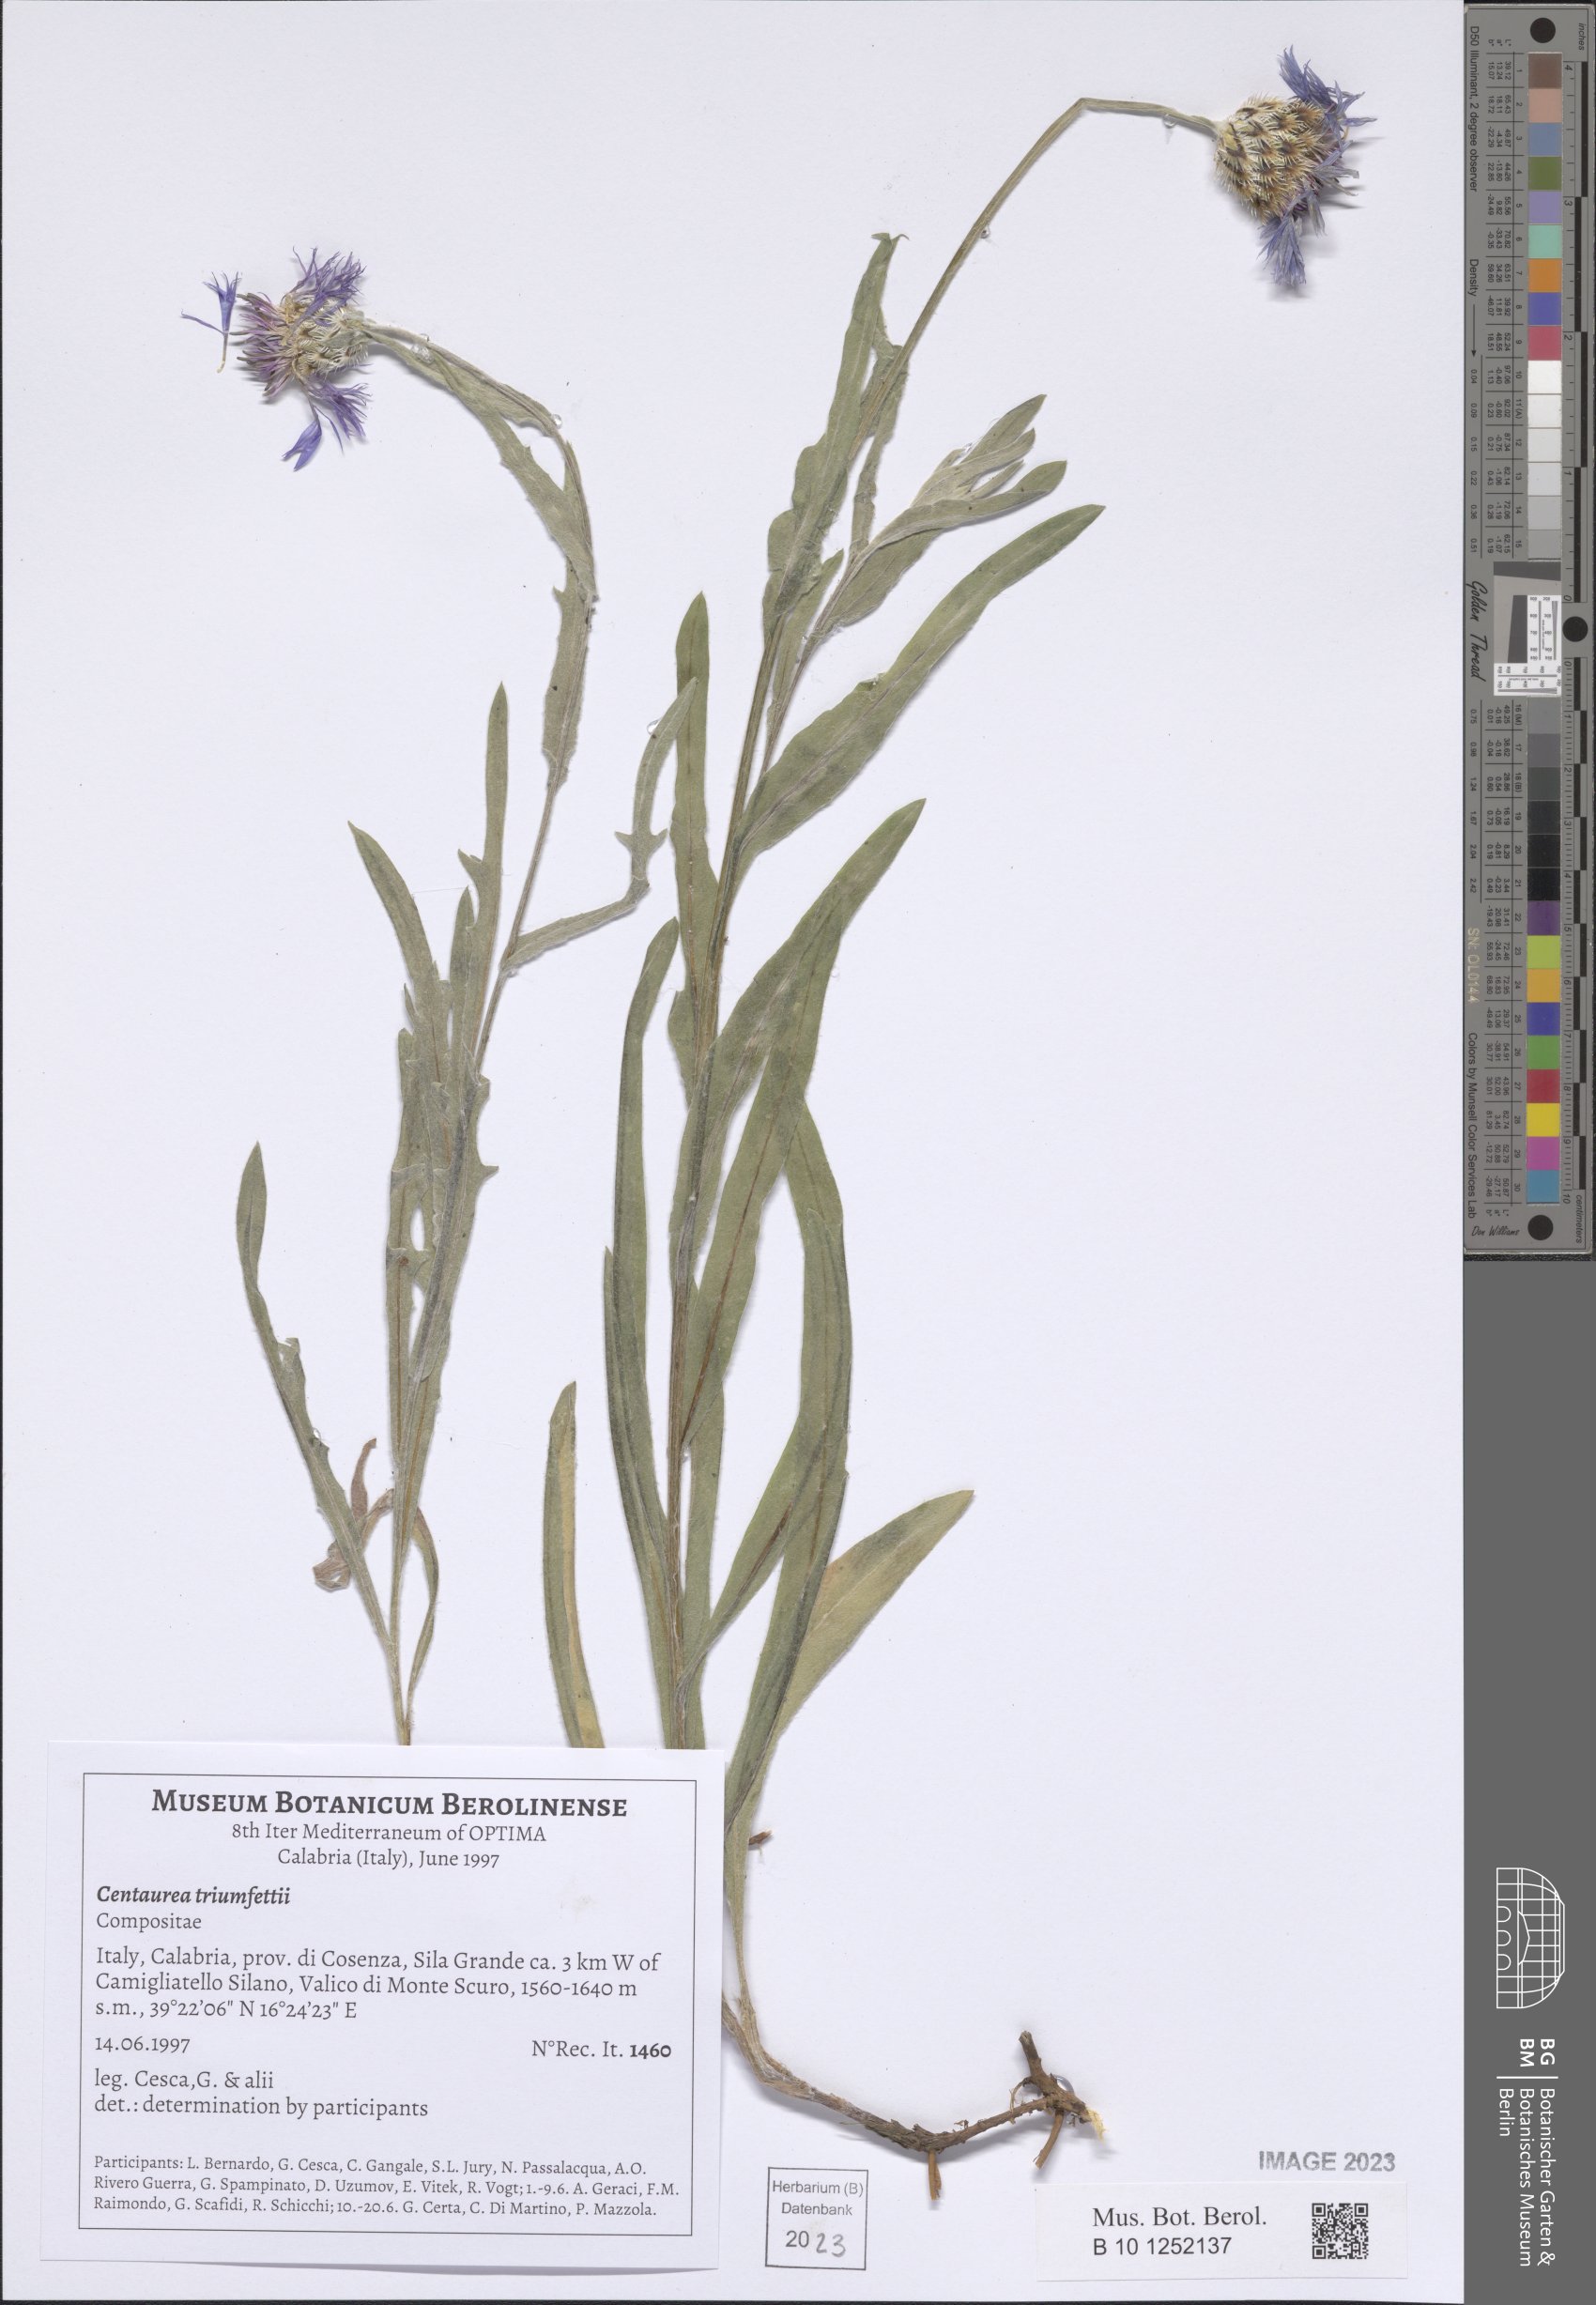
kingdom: Plantae
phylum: Tracheophyta
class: Magnoliopsida
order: Asterales
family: Asteraceae
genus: Centaurea
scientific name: Centaurea triumfettii
